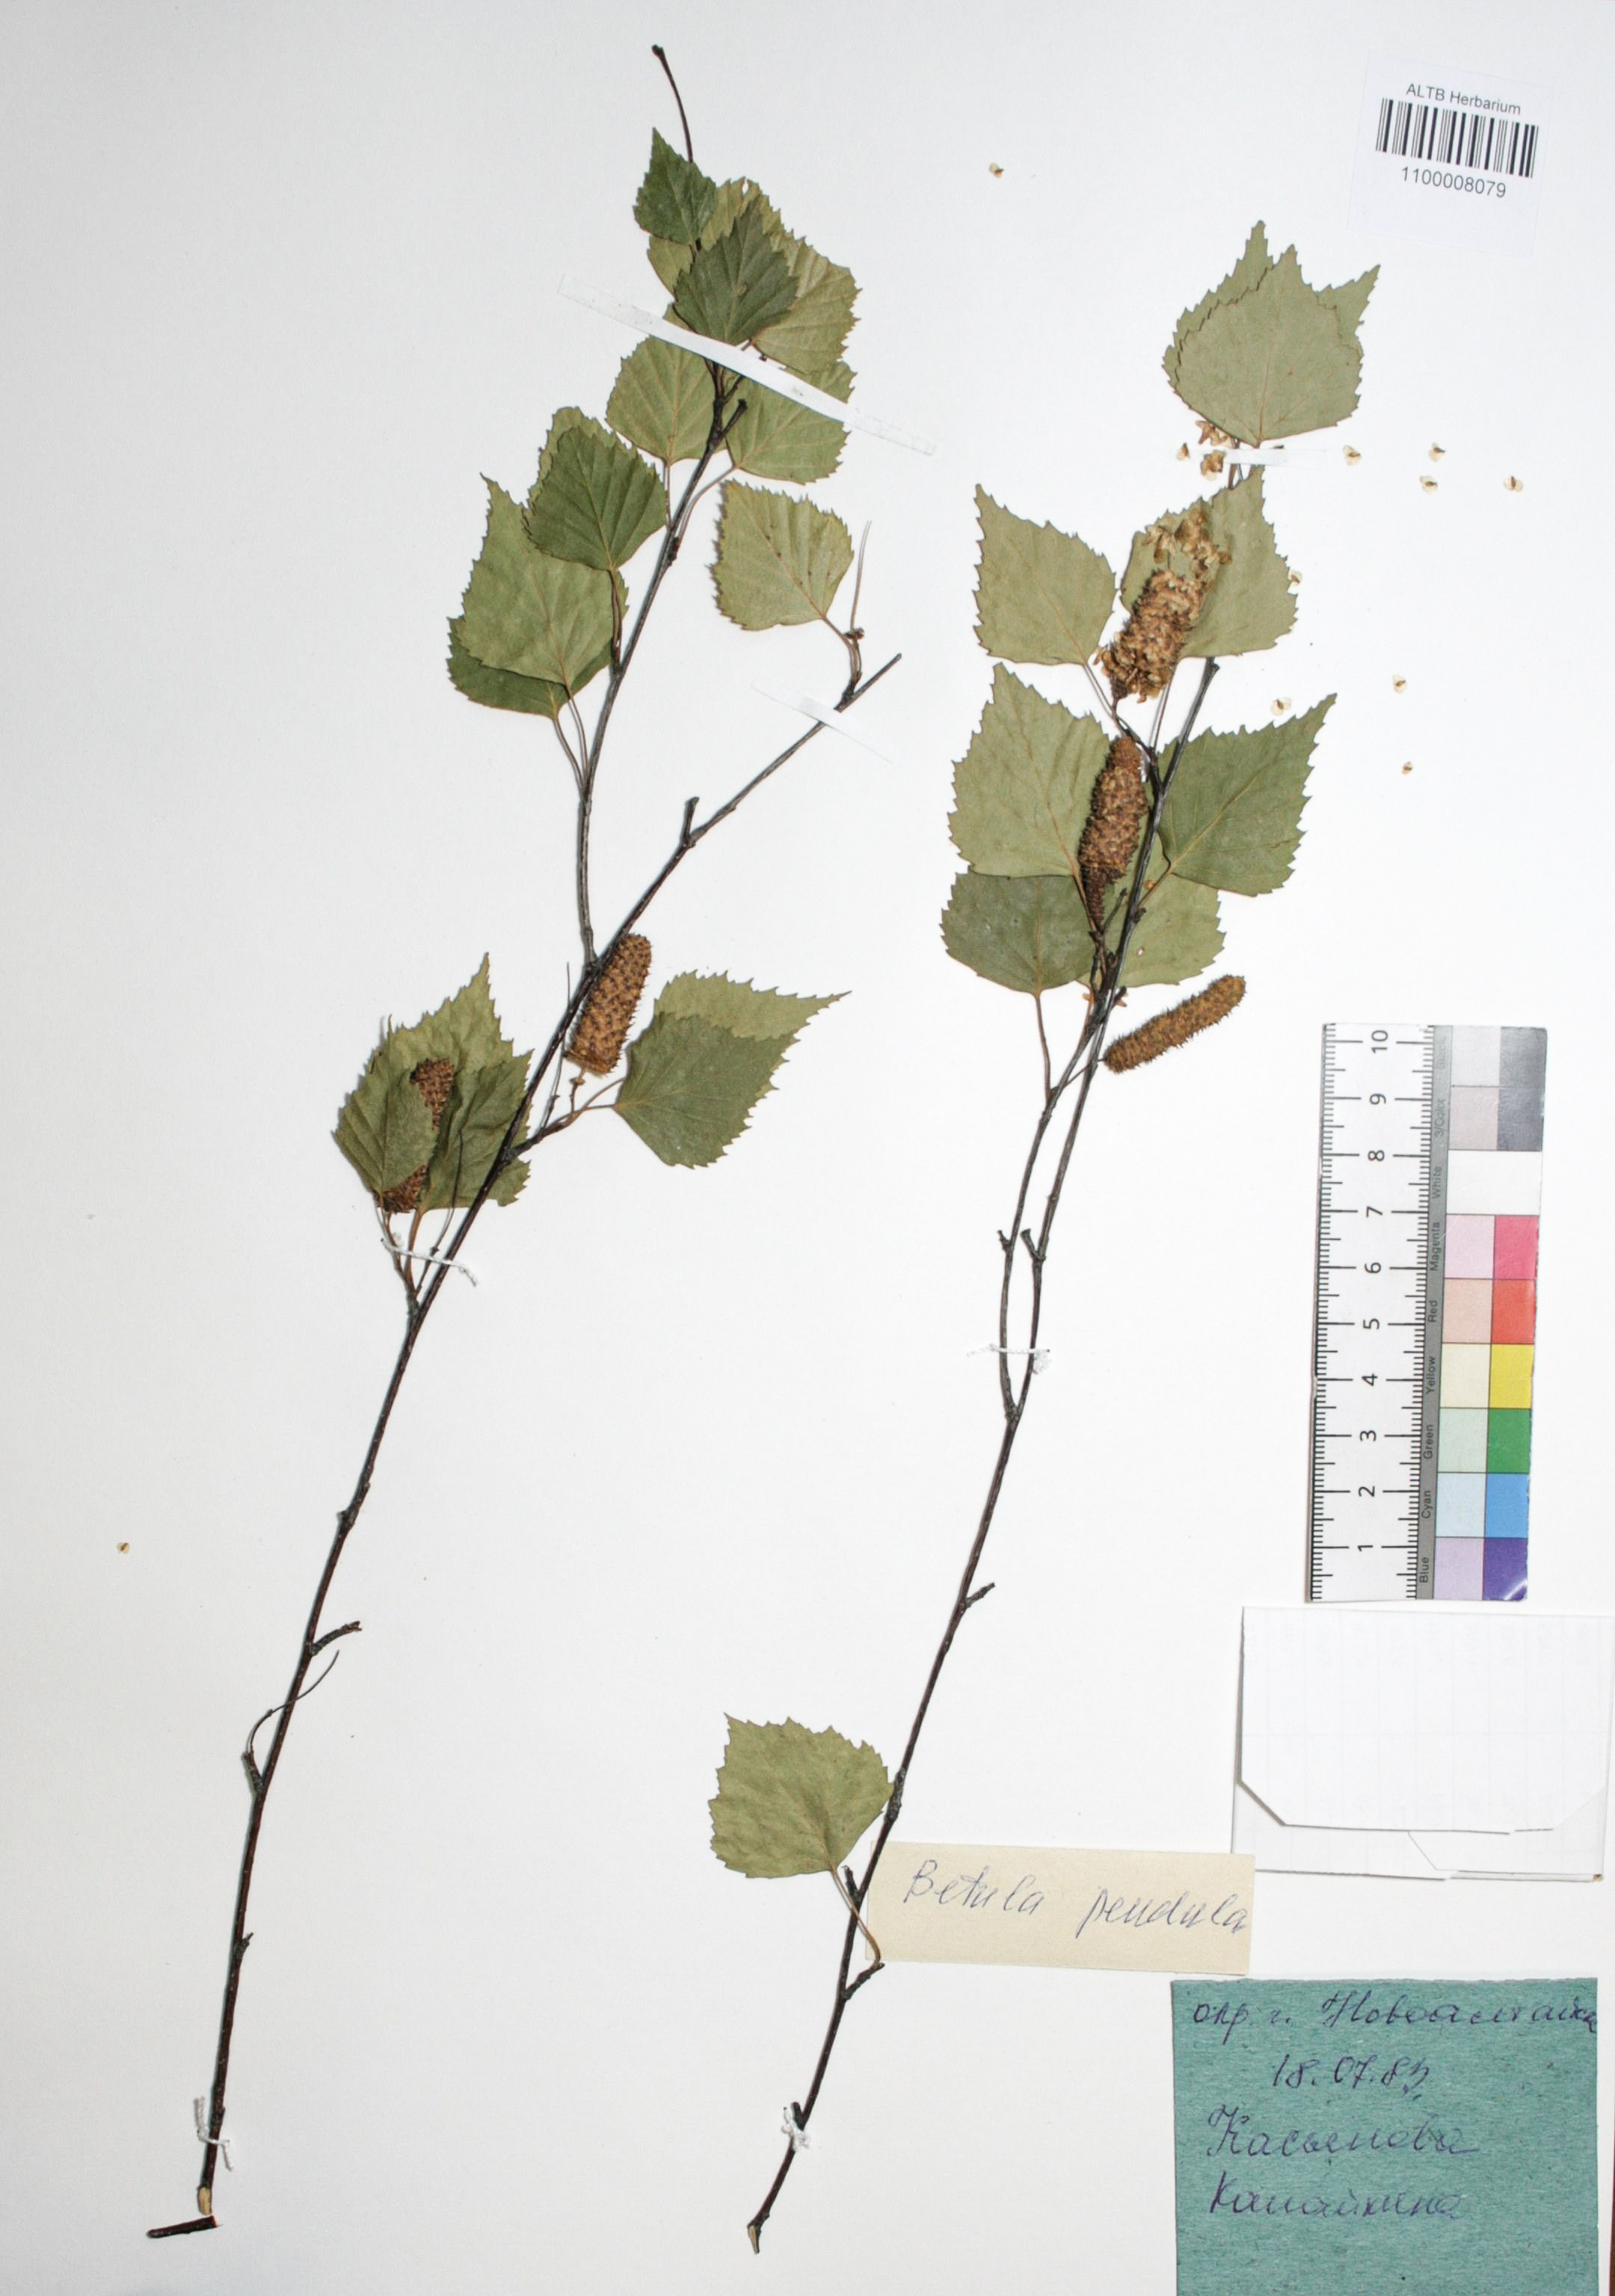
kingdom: Plantae
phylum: Tracheophyta
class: Magnoliopsida
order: Fagales
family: Betulaceae
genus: Betula
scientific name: Betula pendula
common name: Silver birch
